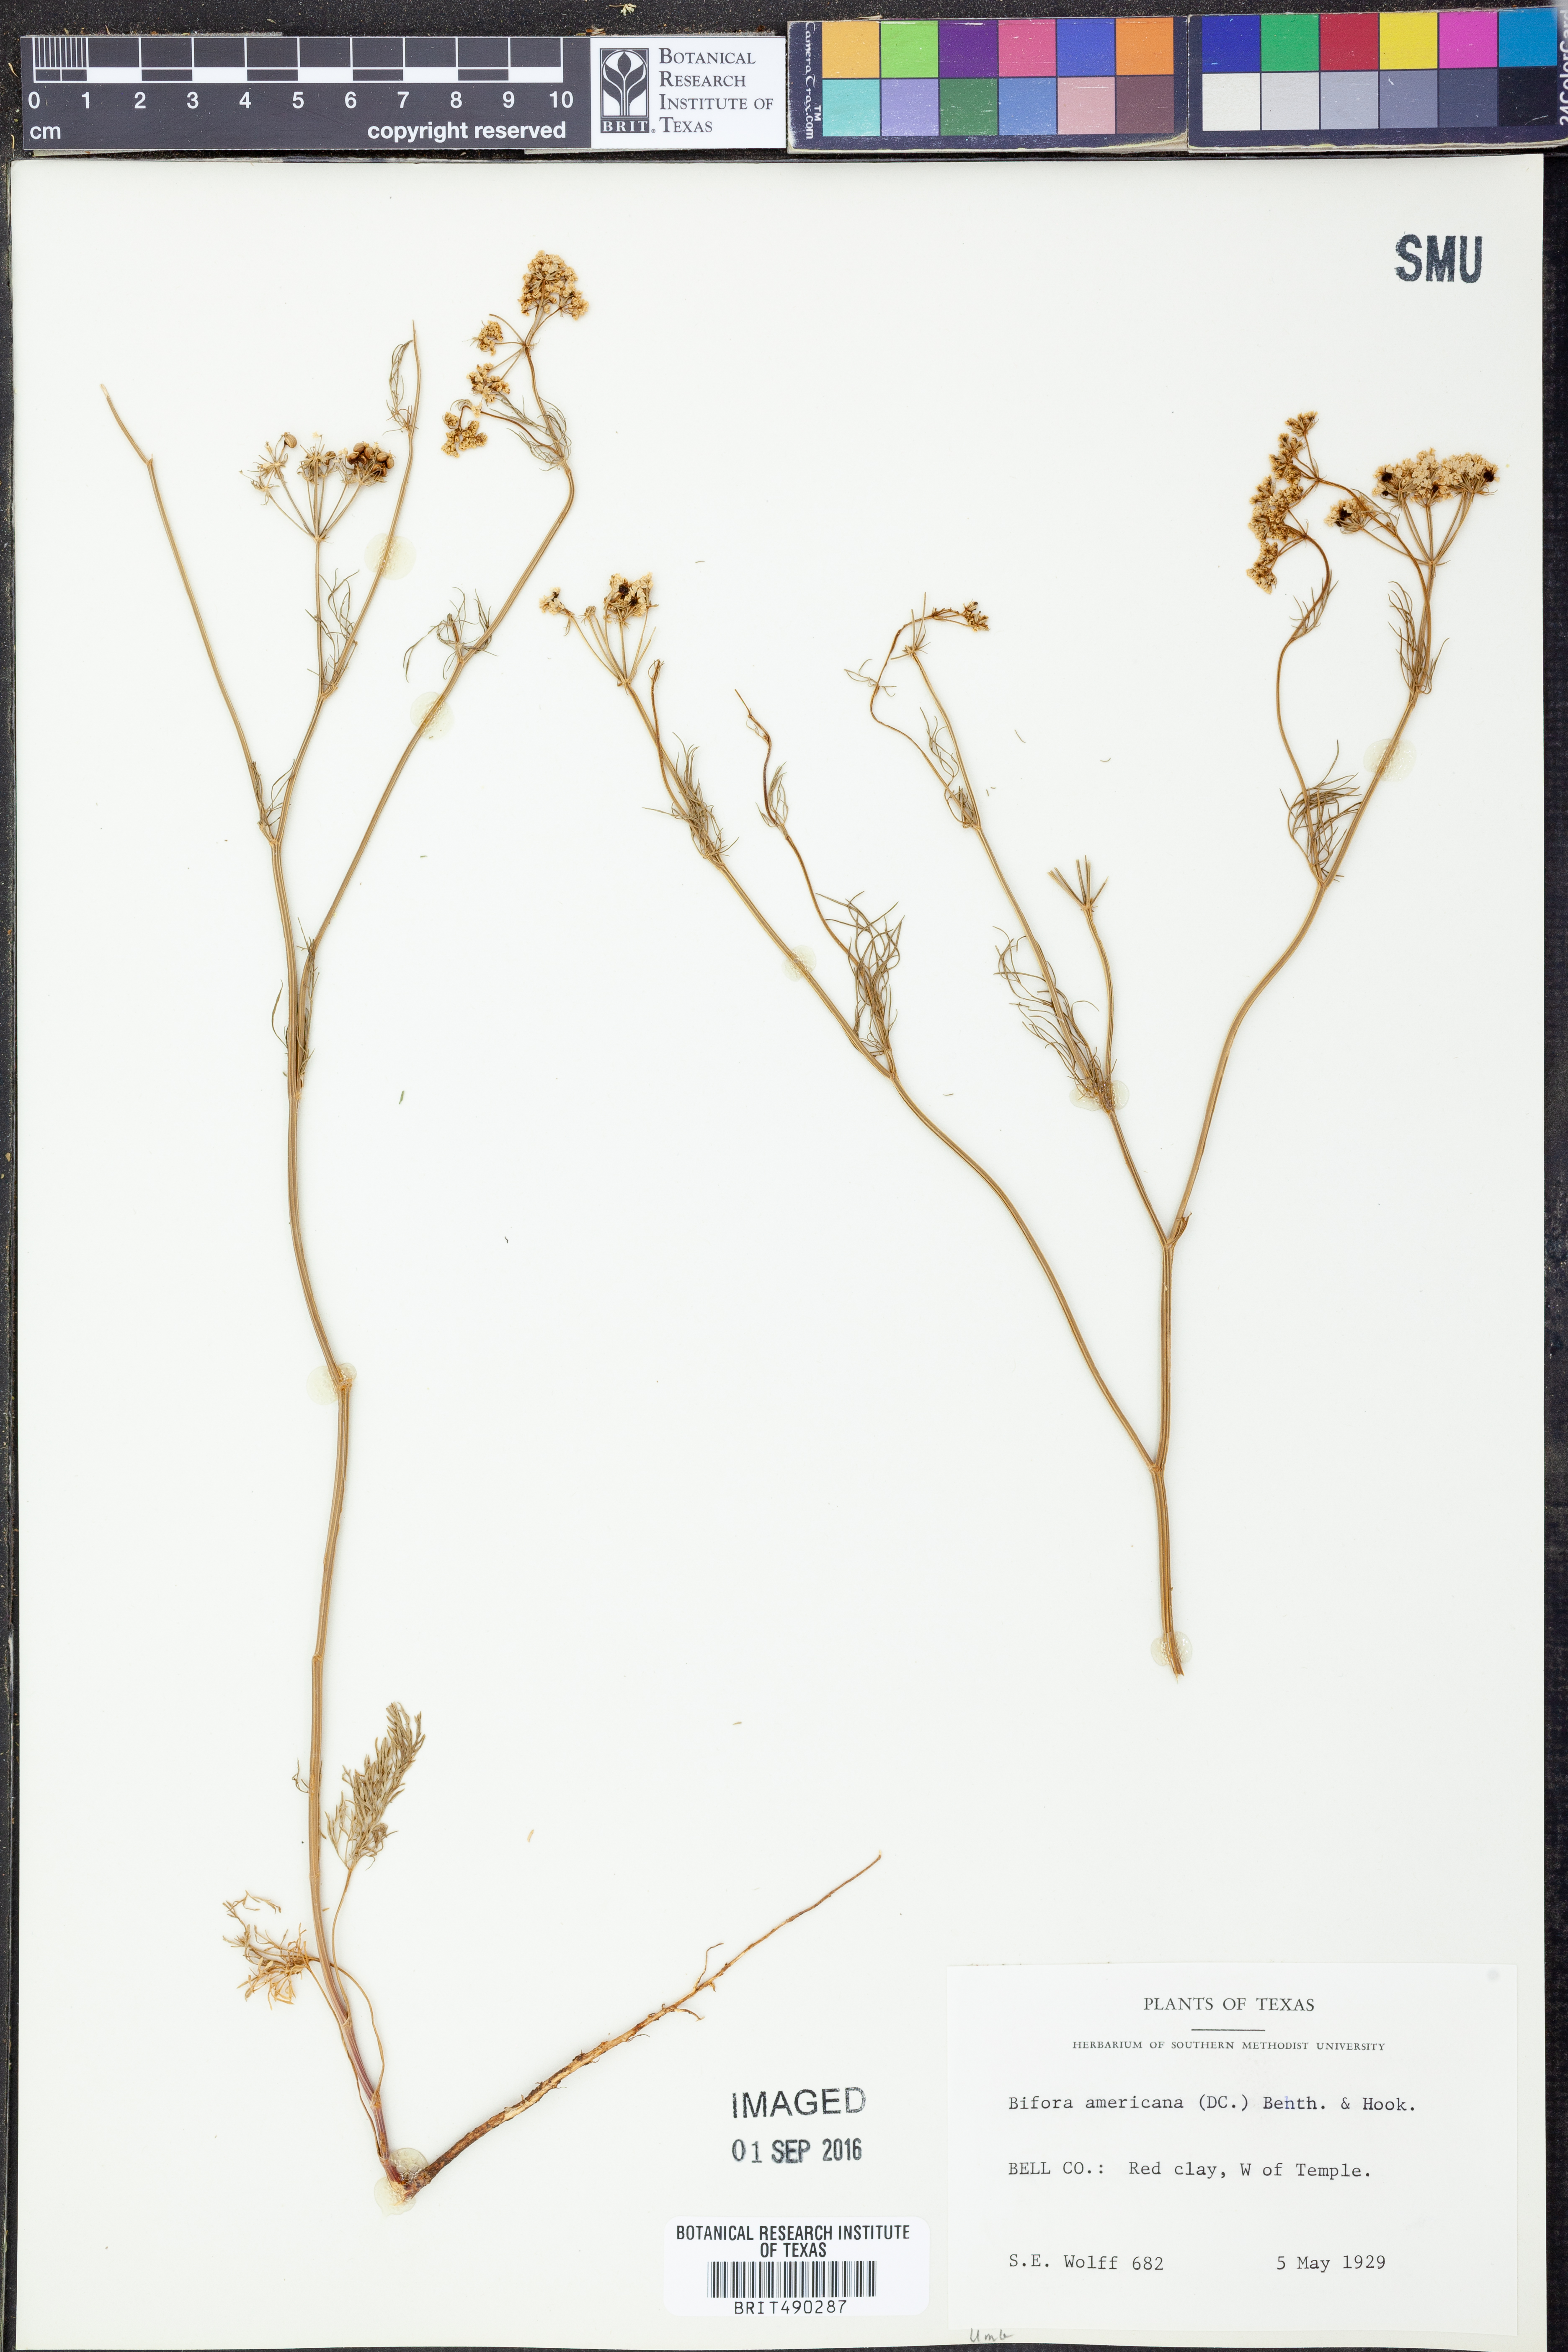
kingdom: Plantae
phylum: Tracheophyta
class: Magnoliopsida
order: Apiales
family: Apiaceae
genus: Atrema
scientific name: Atrema americanum
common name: Prairie-bishop
